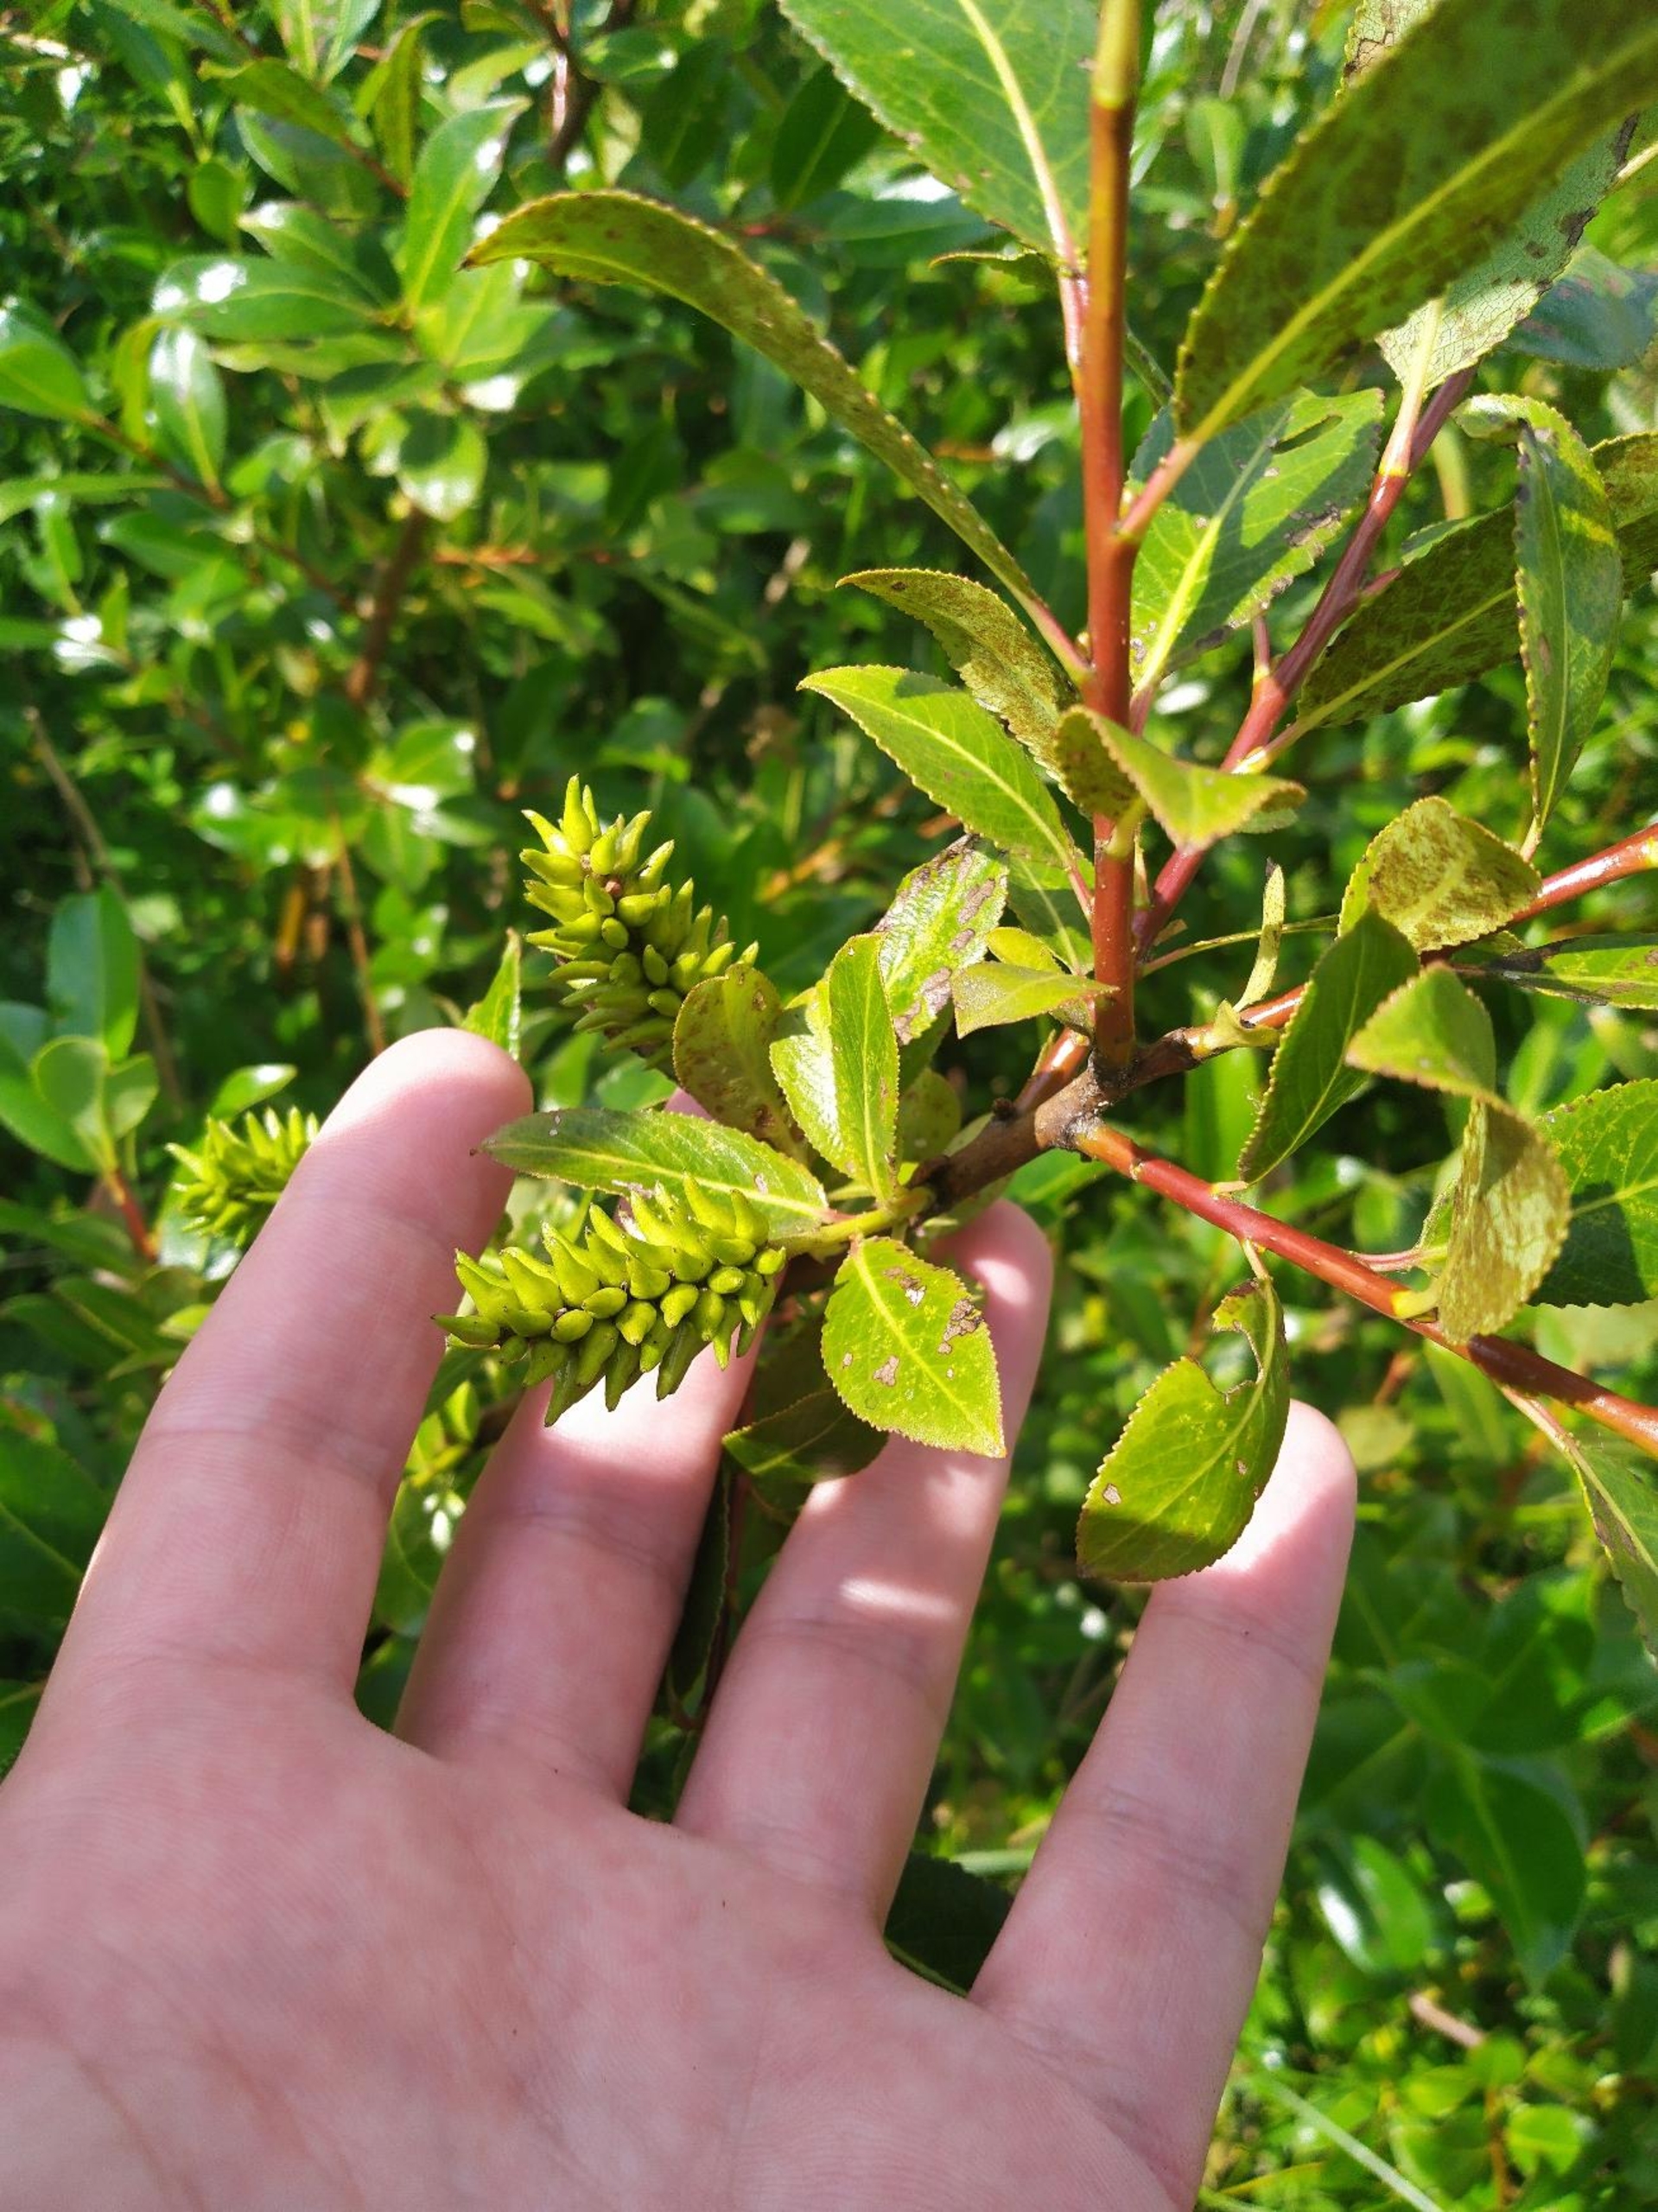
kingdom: Plantae
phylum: Tracheophyta
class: Magnoliopsida
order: Malpighiales
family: Salicaceae
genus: Salix
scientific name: Salix pentandra
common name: Femhannet pil
